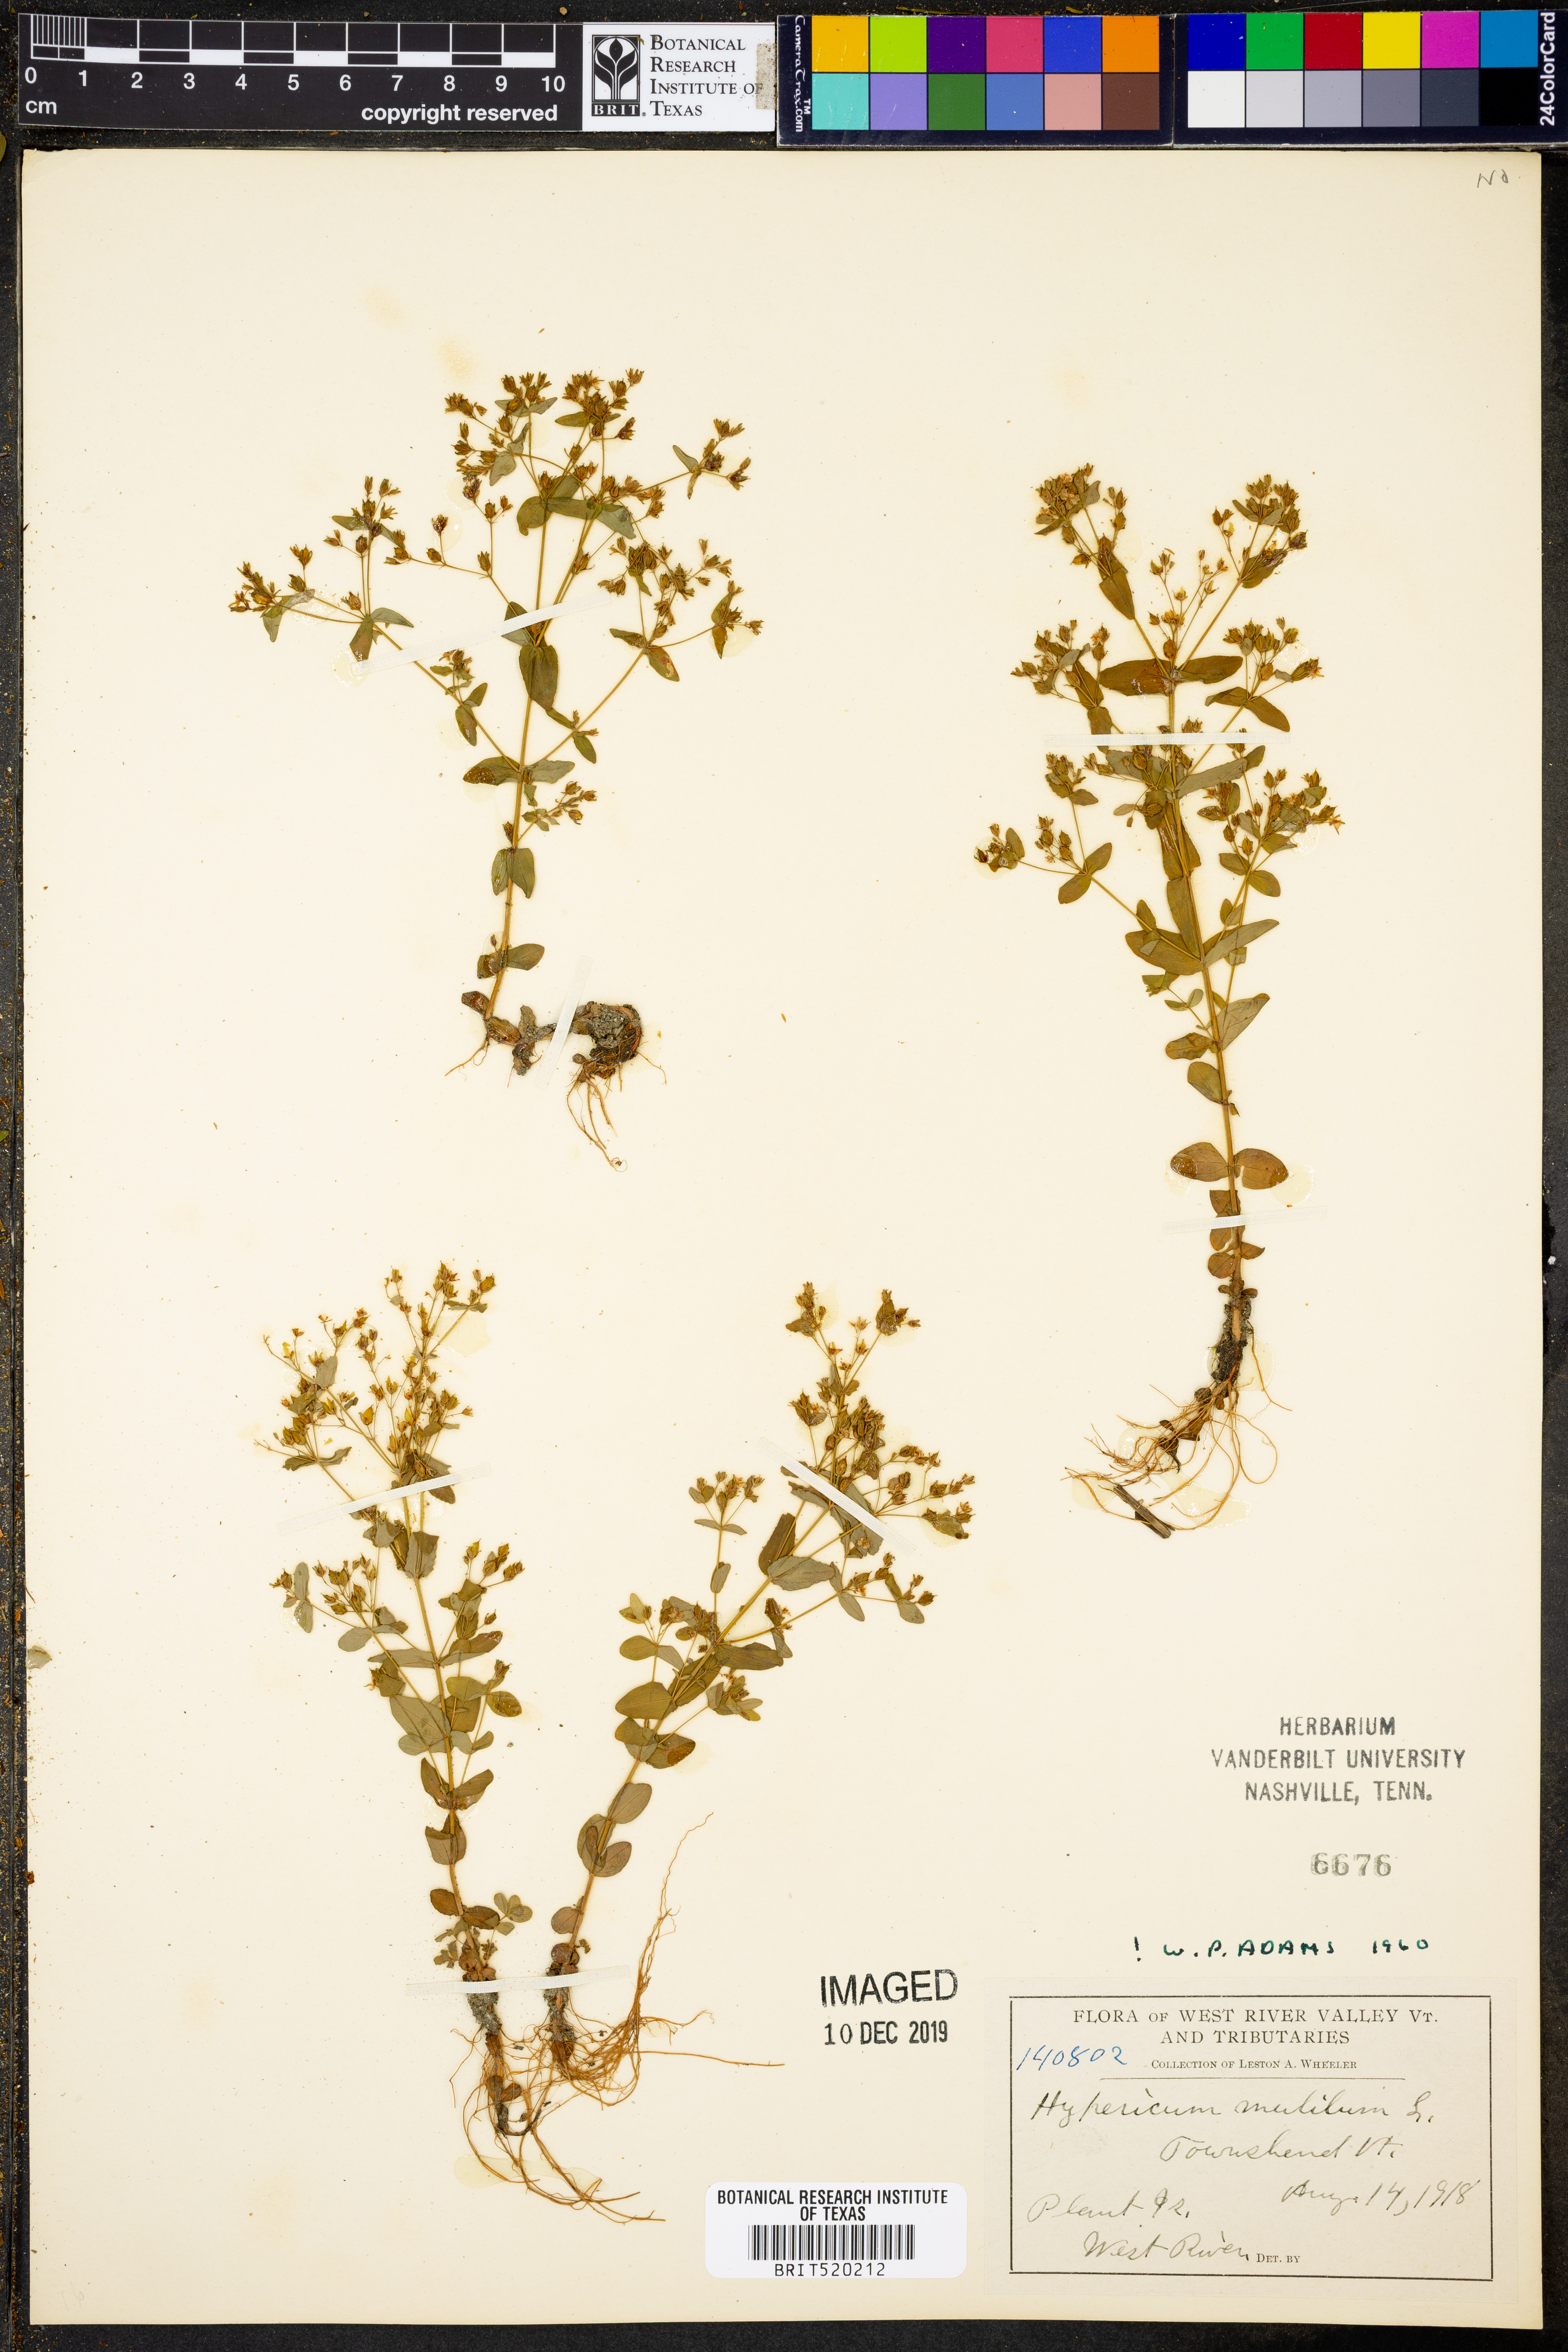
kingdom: Plantae
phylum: Tracheophyta
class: Magnoliopsida
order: Malpighiales
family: Hypericaceae
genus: Hypericum
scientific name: Hypericum mutilum
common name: Dwarf st. john's-wort
